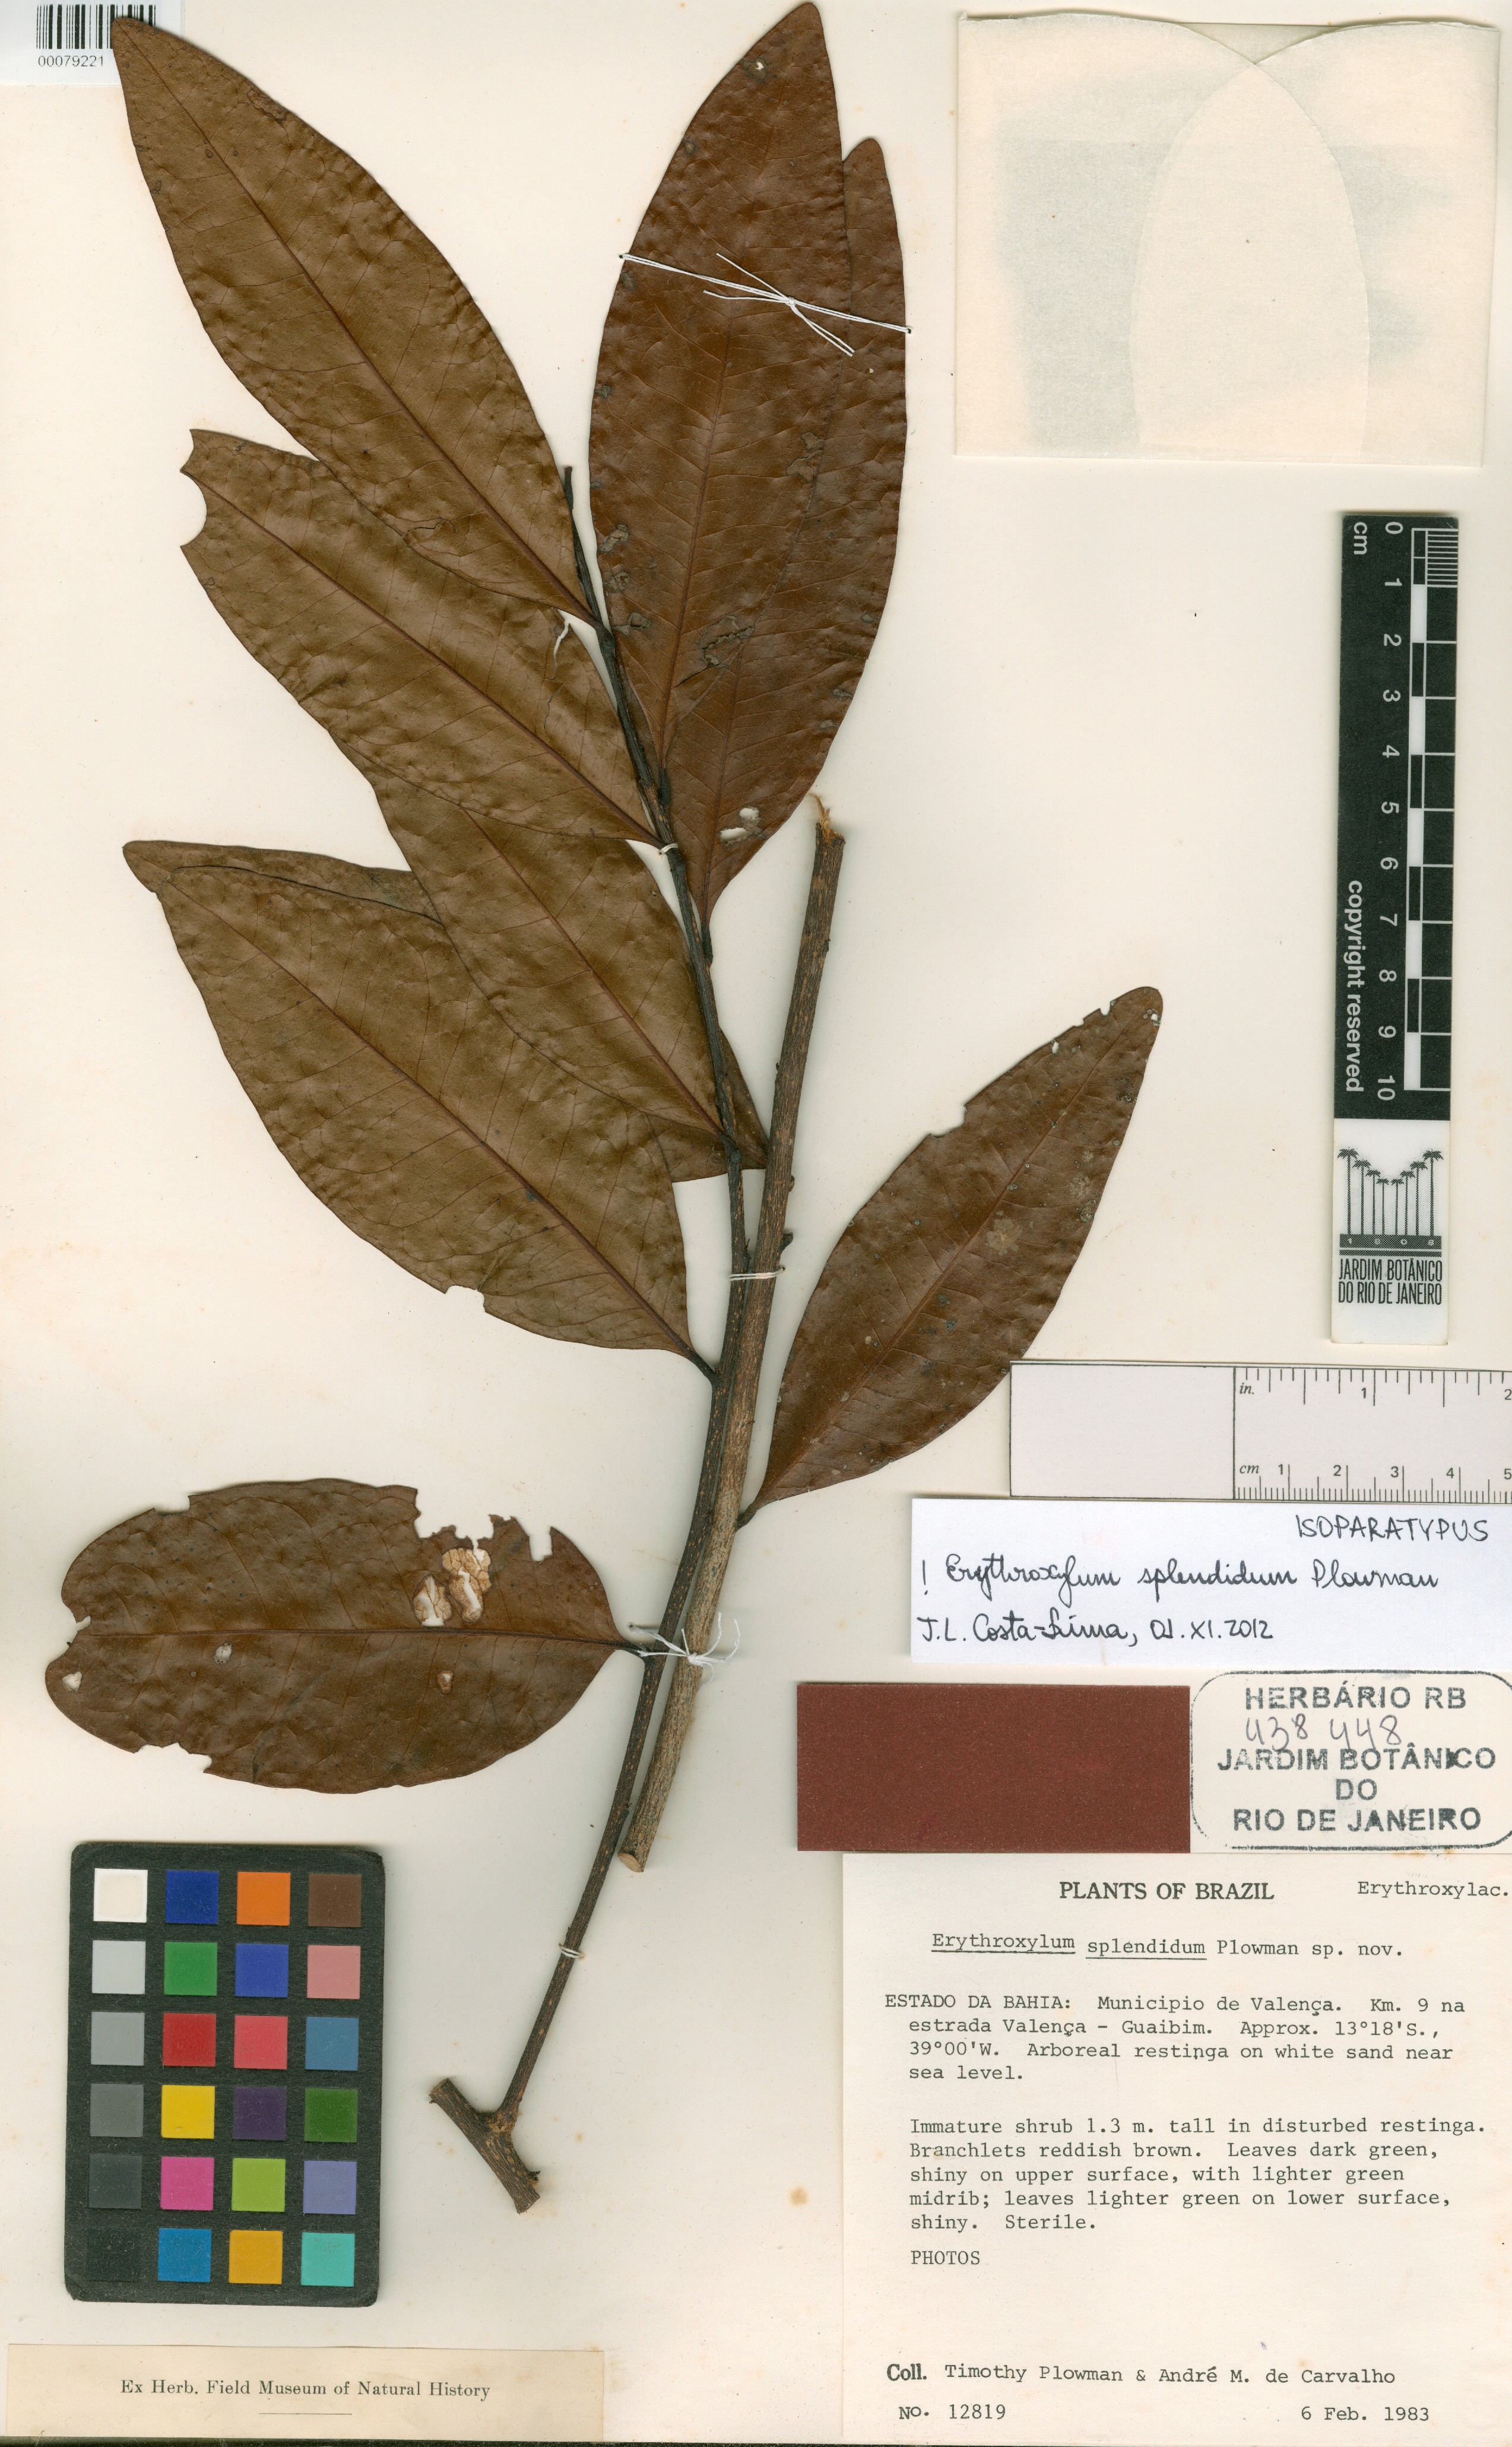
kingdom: Plantae
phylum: Tracheophyta
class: Magnoliopsida
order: Malpighiales
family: Erythroxylaceae
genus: Erythroxylum
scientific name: Erythroxylum splendidum
